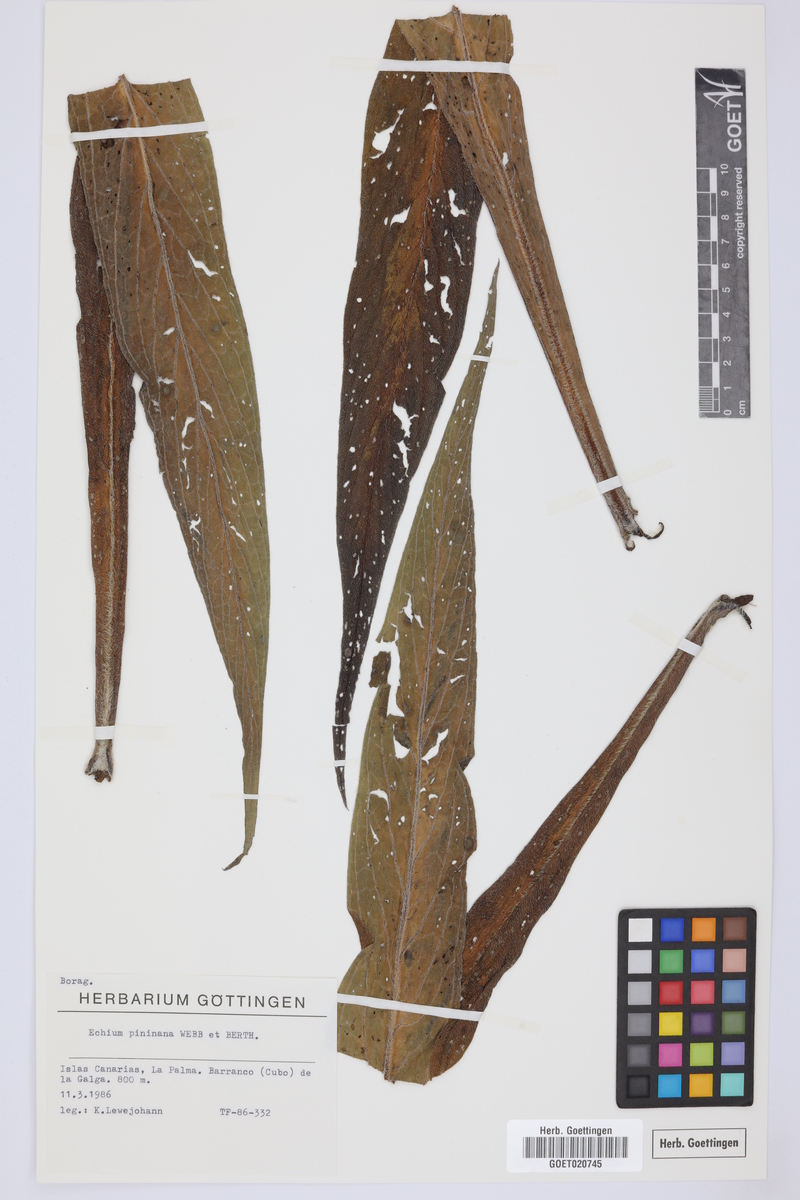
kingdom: Plantae
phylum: Tracheophyta
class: Magnoliopsida
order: Boraginales
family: Boraginaceae
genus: Echium
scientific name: Echium pininana
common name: Giant viper's-bugloss
